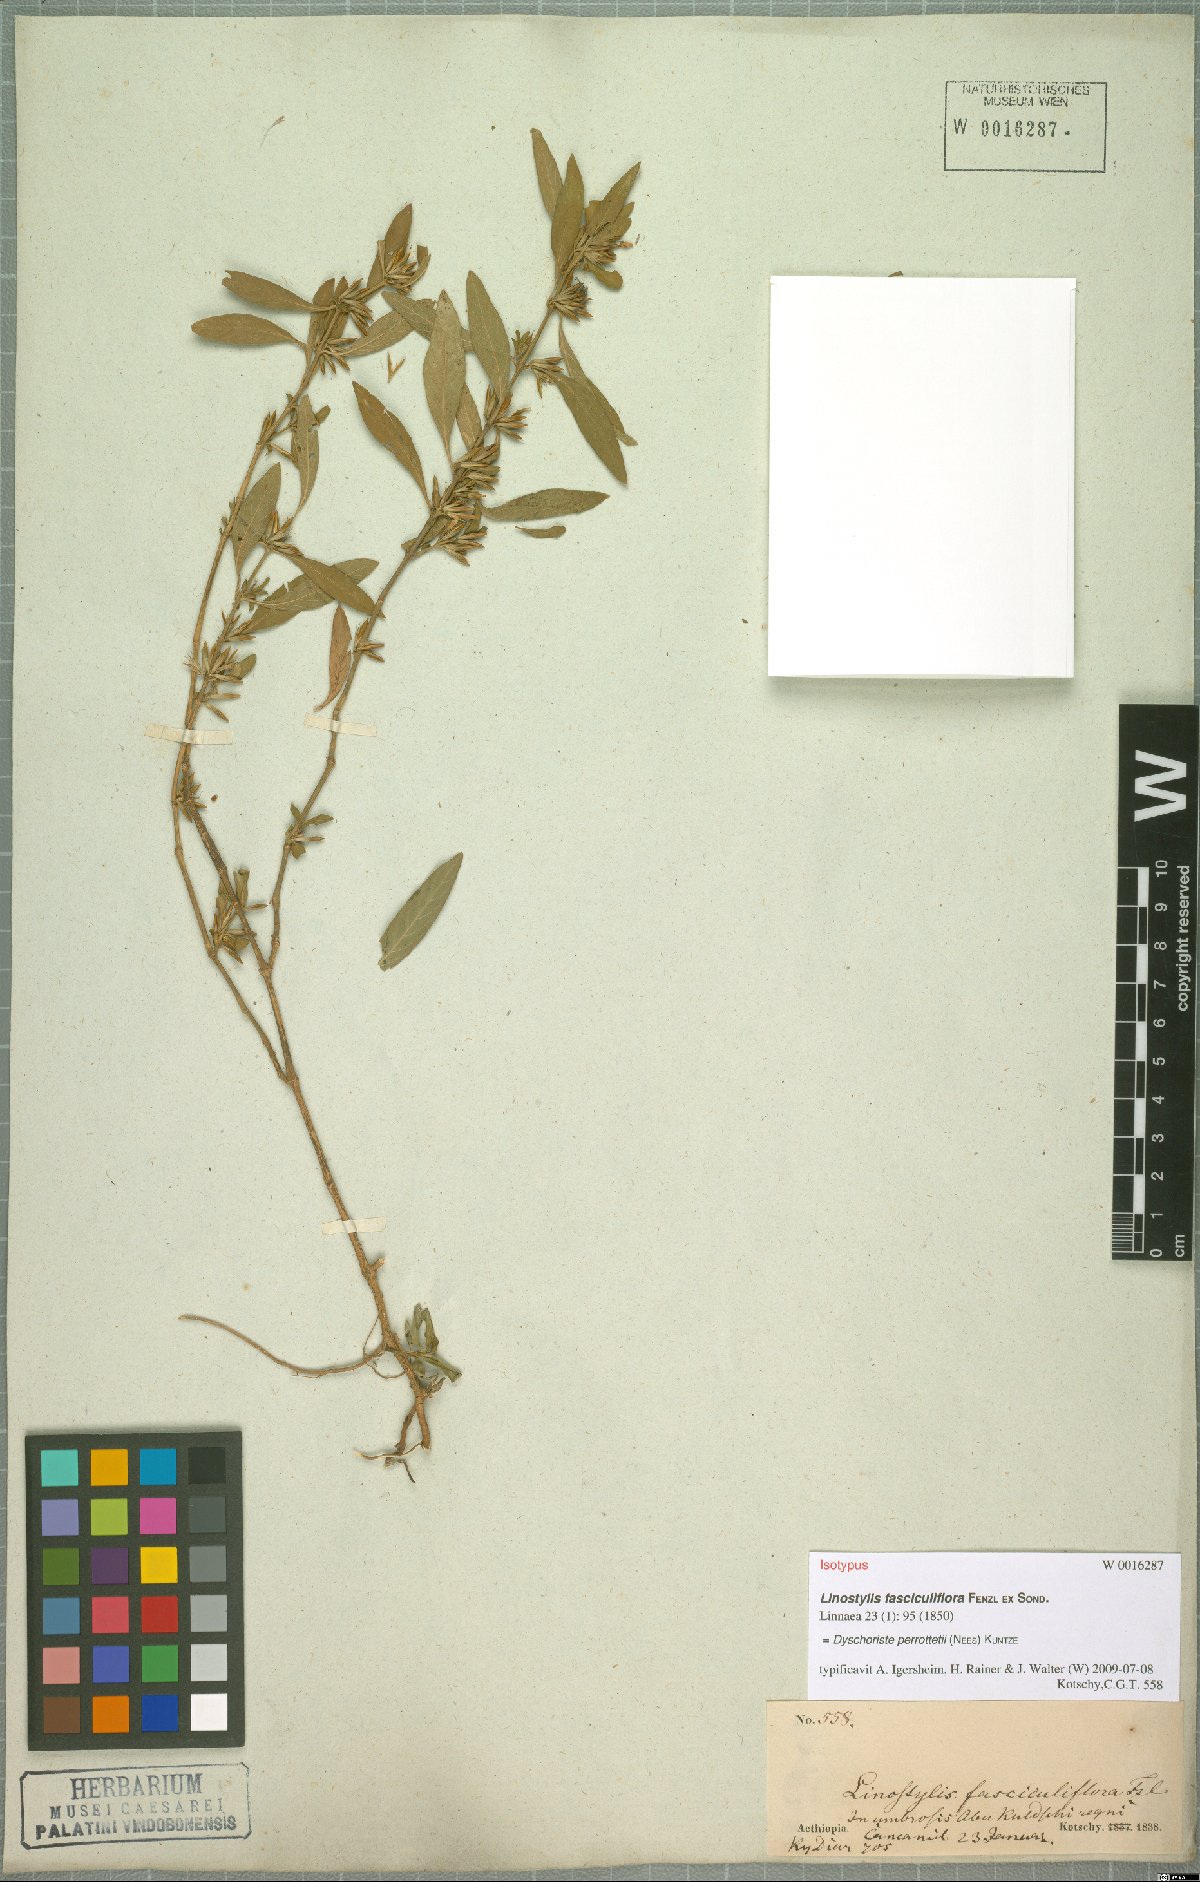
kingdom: Plantae
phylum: Tracheophyta
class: Magnoliopsida
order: Lamiales
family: Acanthaceae
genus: Dyschoriste
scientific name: Dyschoriste nagchana
